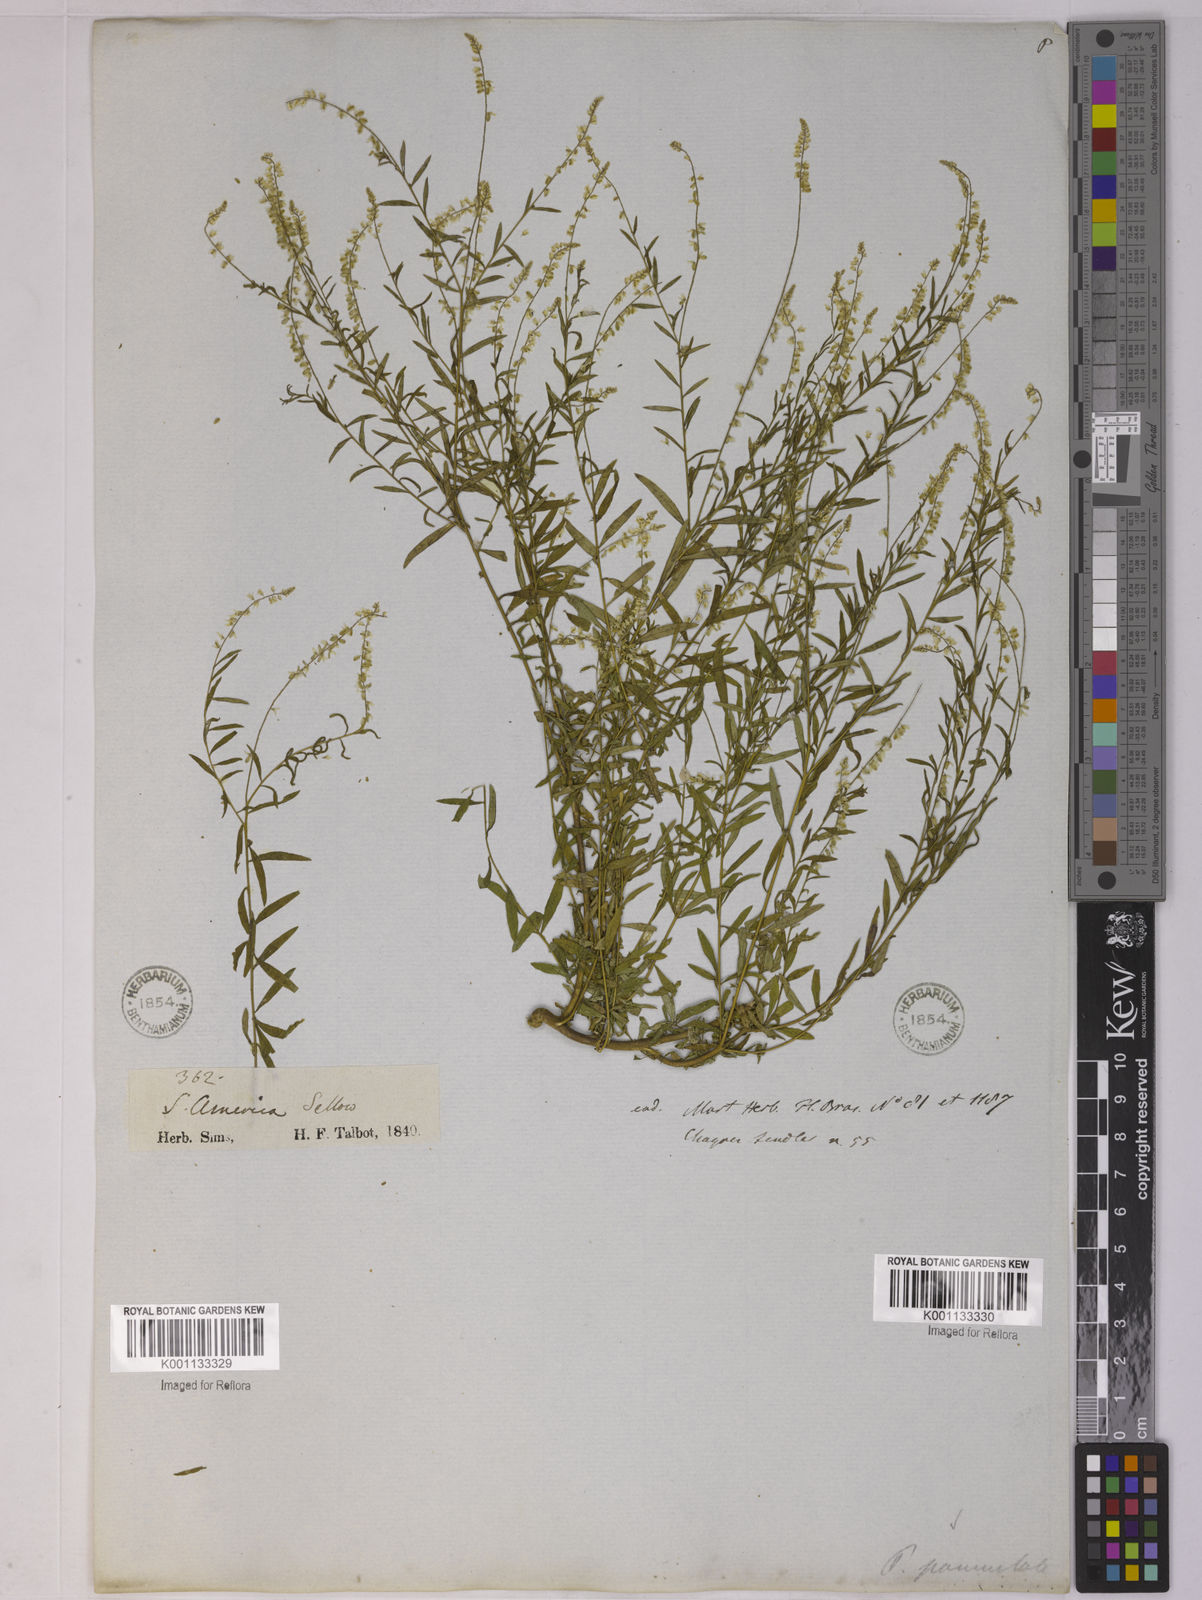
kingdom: Plantae
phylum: Tracheophyta
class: Magnoliopsida
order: Fabales
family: Polygalaceae
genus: Polygala
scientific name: Polygala paniculata
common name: Orosne
